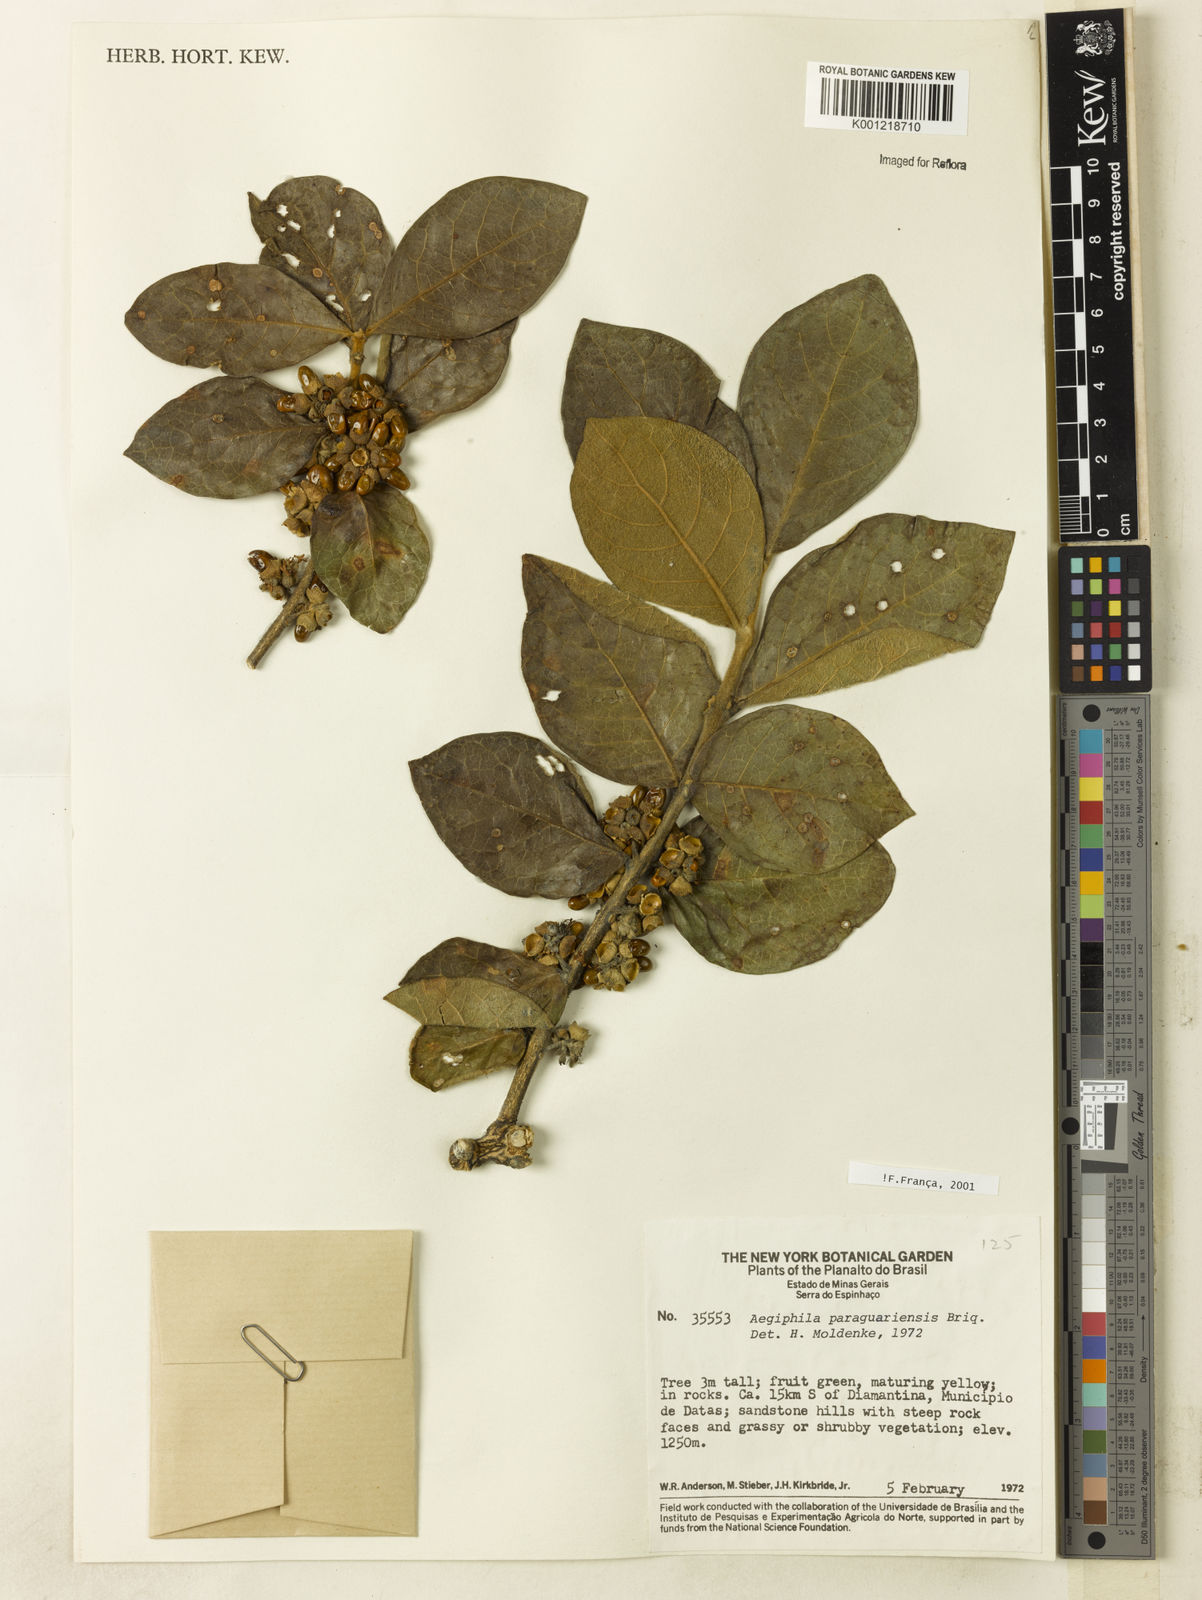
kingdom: Plantae
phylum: Tracheophyta
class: Magnoliopsida
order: Lamiales
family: Lamiaceae
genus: Aegiphila
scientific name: Aegiphila paraguariensis
